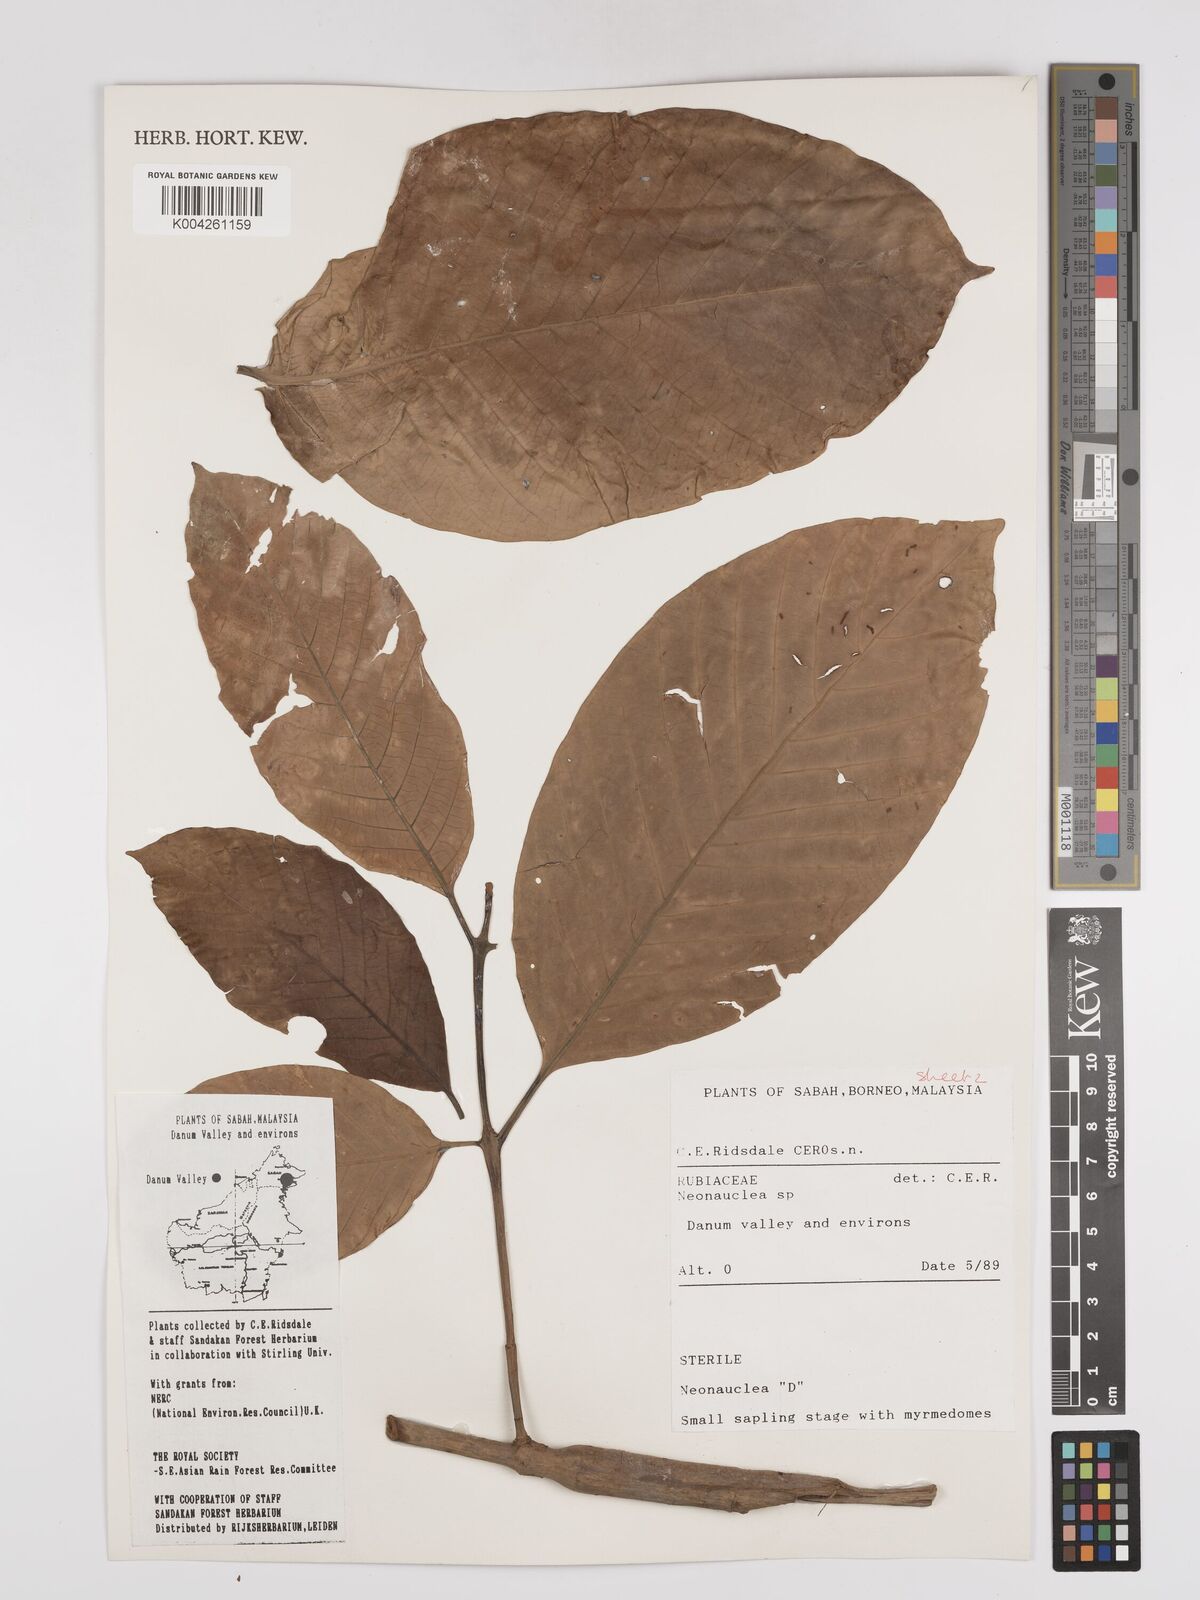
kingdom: Plantae
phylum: Tracheophyta
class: Magnoliopsida
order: Gentianales
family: Rubiaceae
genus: Neonauclea
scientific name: Neonauclea
